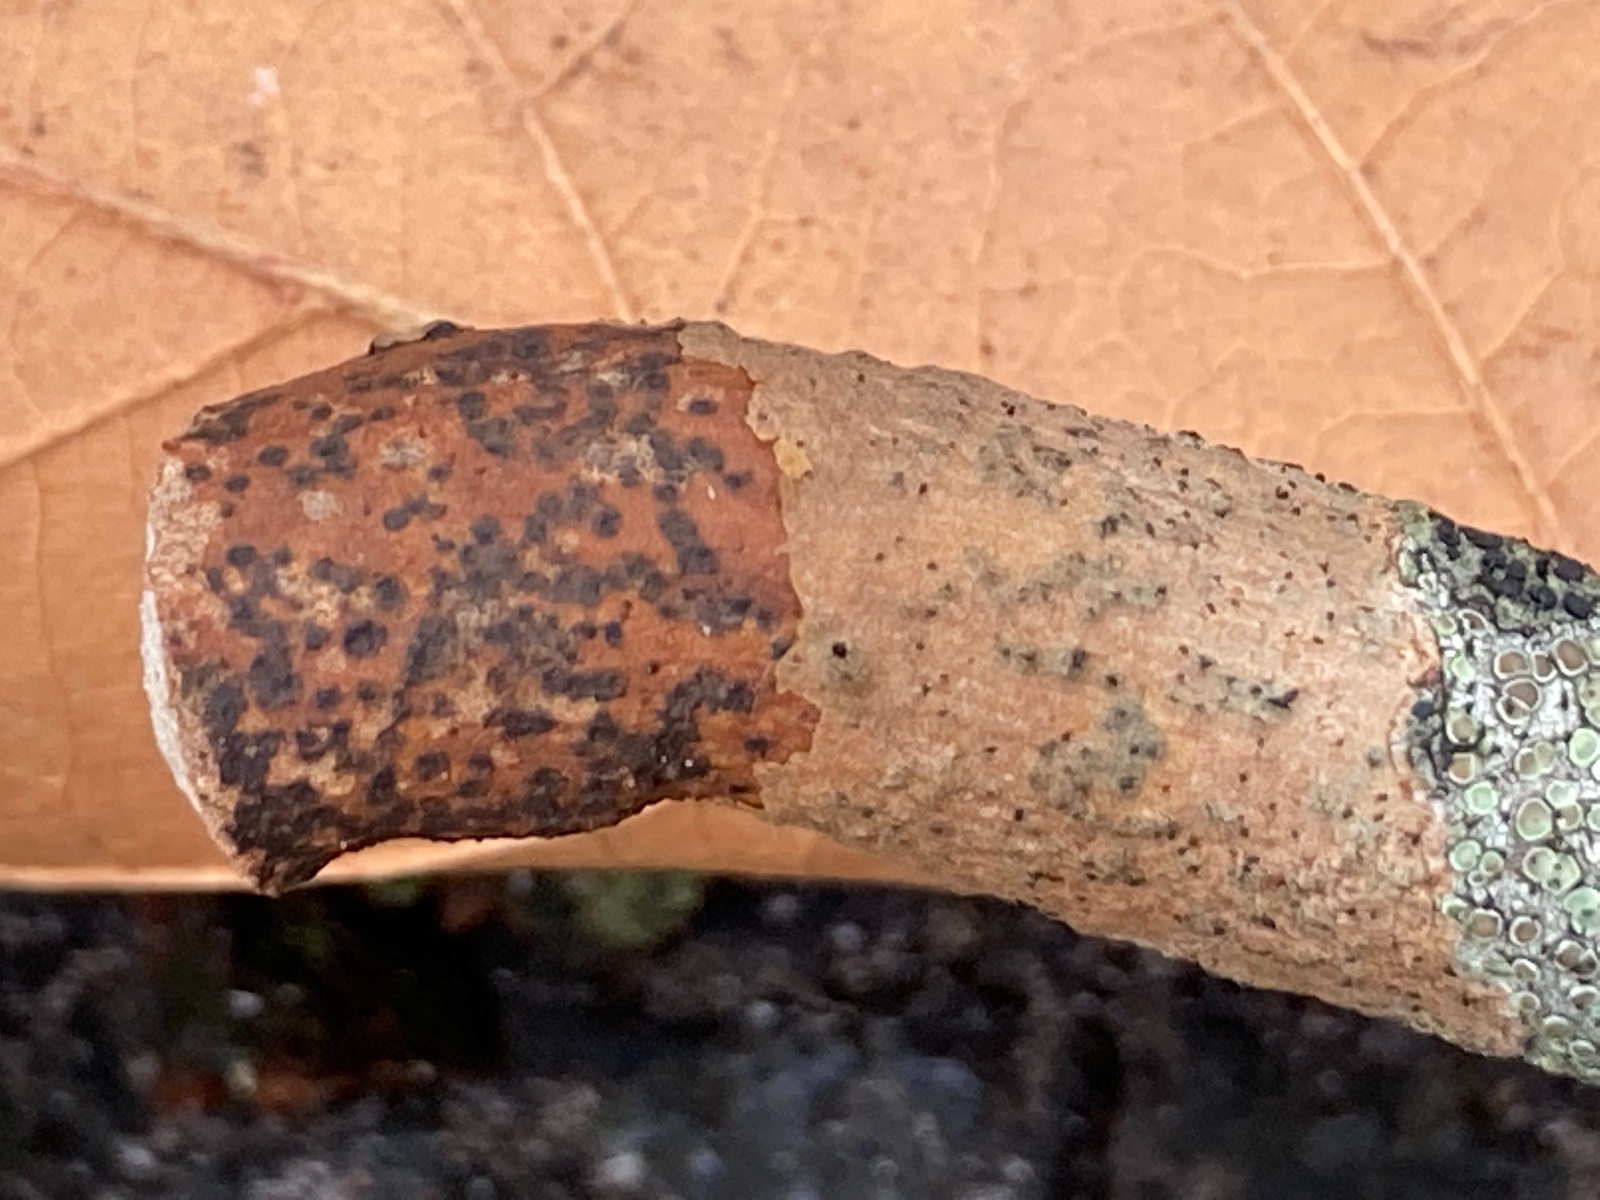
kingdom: Fungi
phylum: Ascomycota
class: Dothideomycetes
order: Pleosporales
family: Macrodiplodiopsidaceae
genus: Macrodiplodiopsis
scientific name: Macrodiplodiopsis desmazieri
